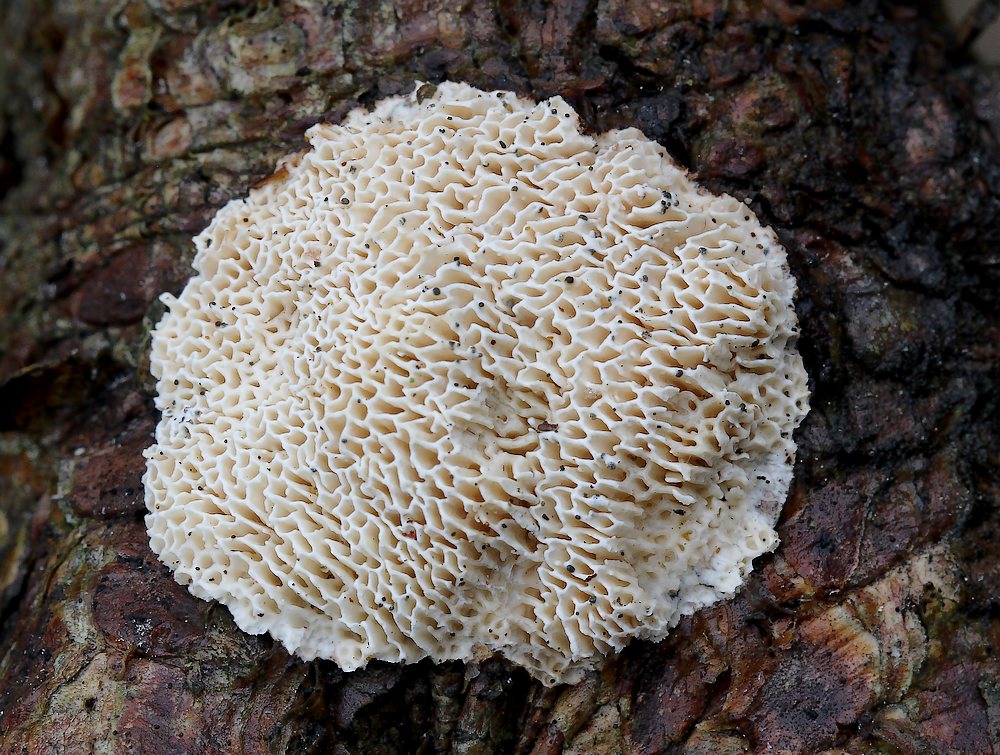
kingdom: Fungi
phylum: Basidiomycota
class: Agaricomycetes
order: Polyporales
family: Fomitopsidaceae
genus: Fomitopsis
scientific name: Fomitopsis
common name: fyrre-skiveporesvamp
